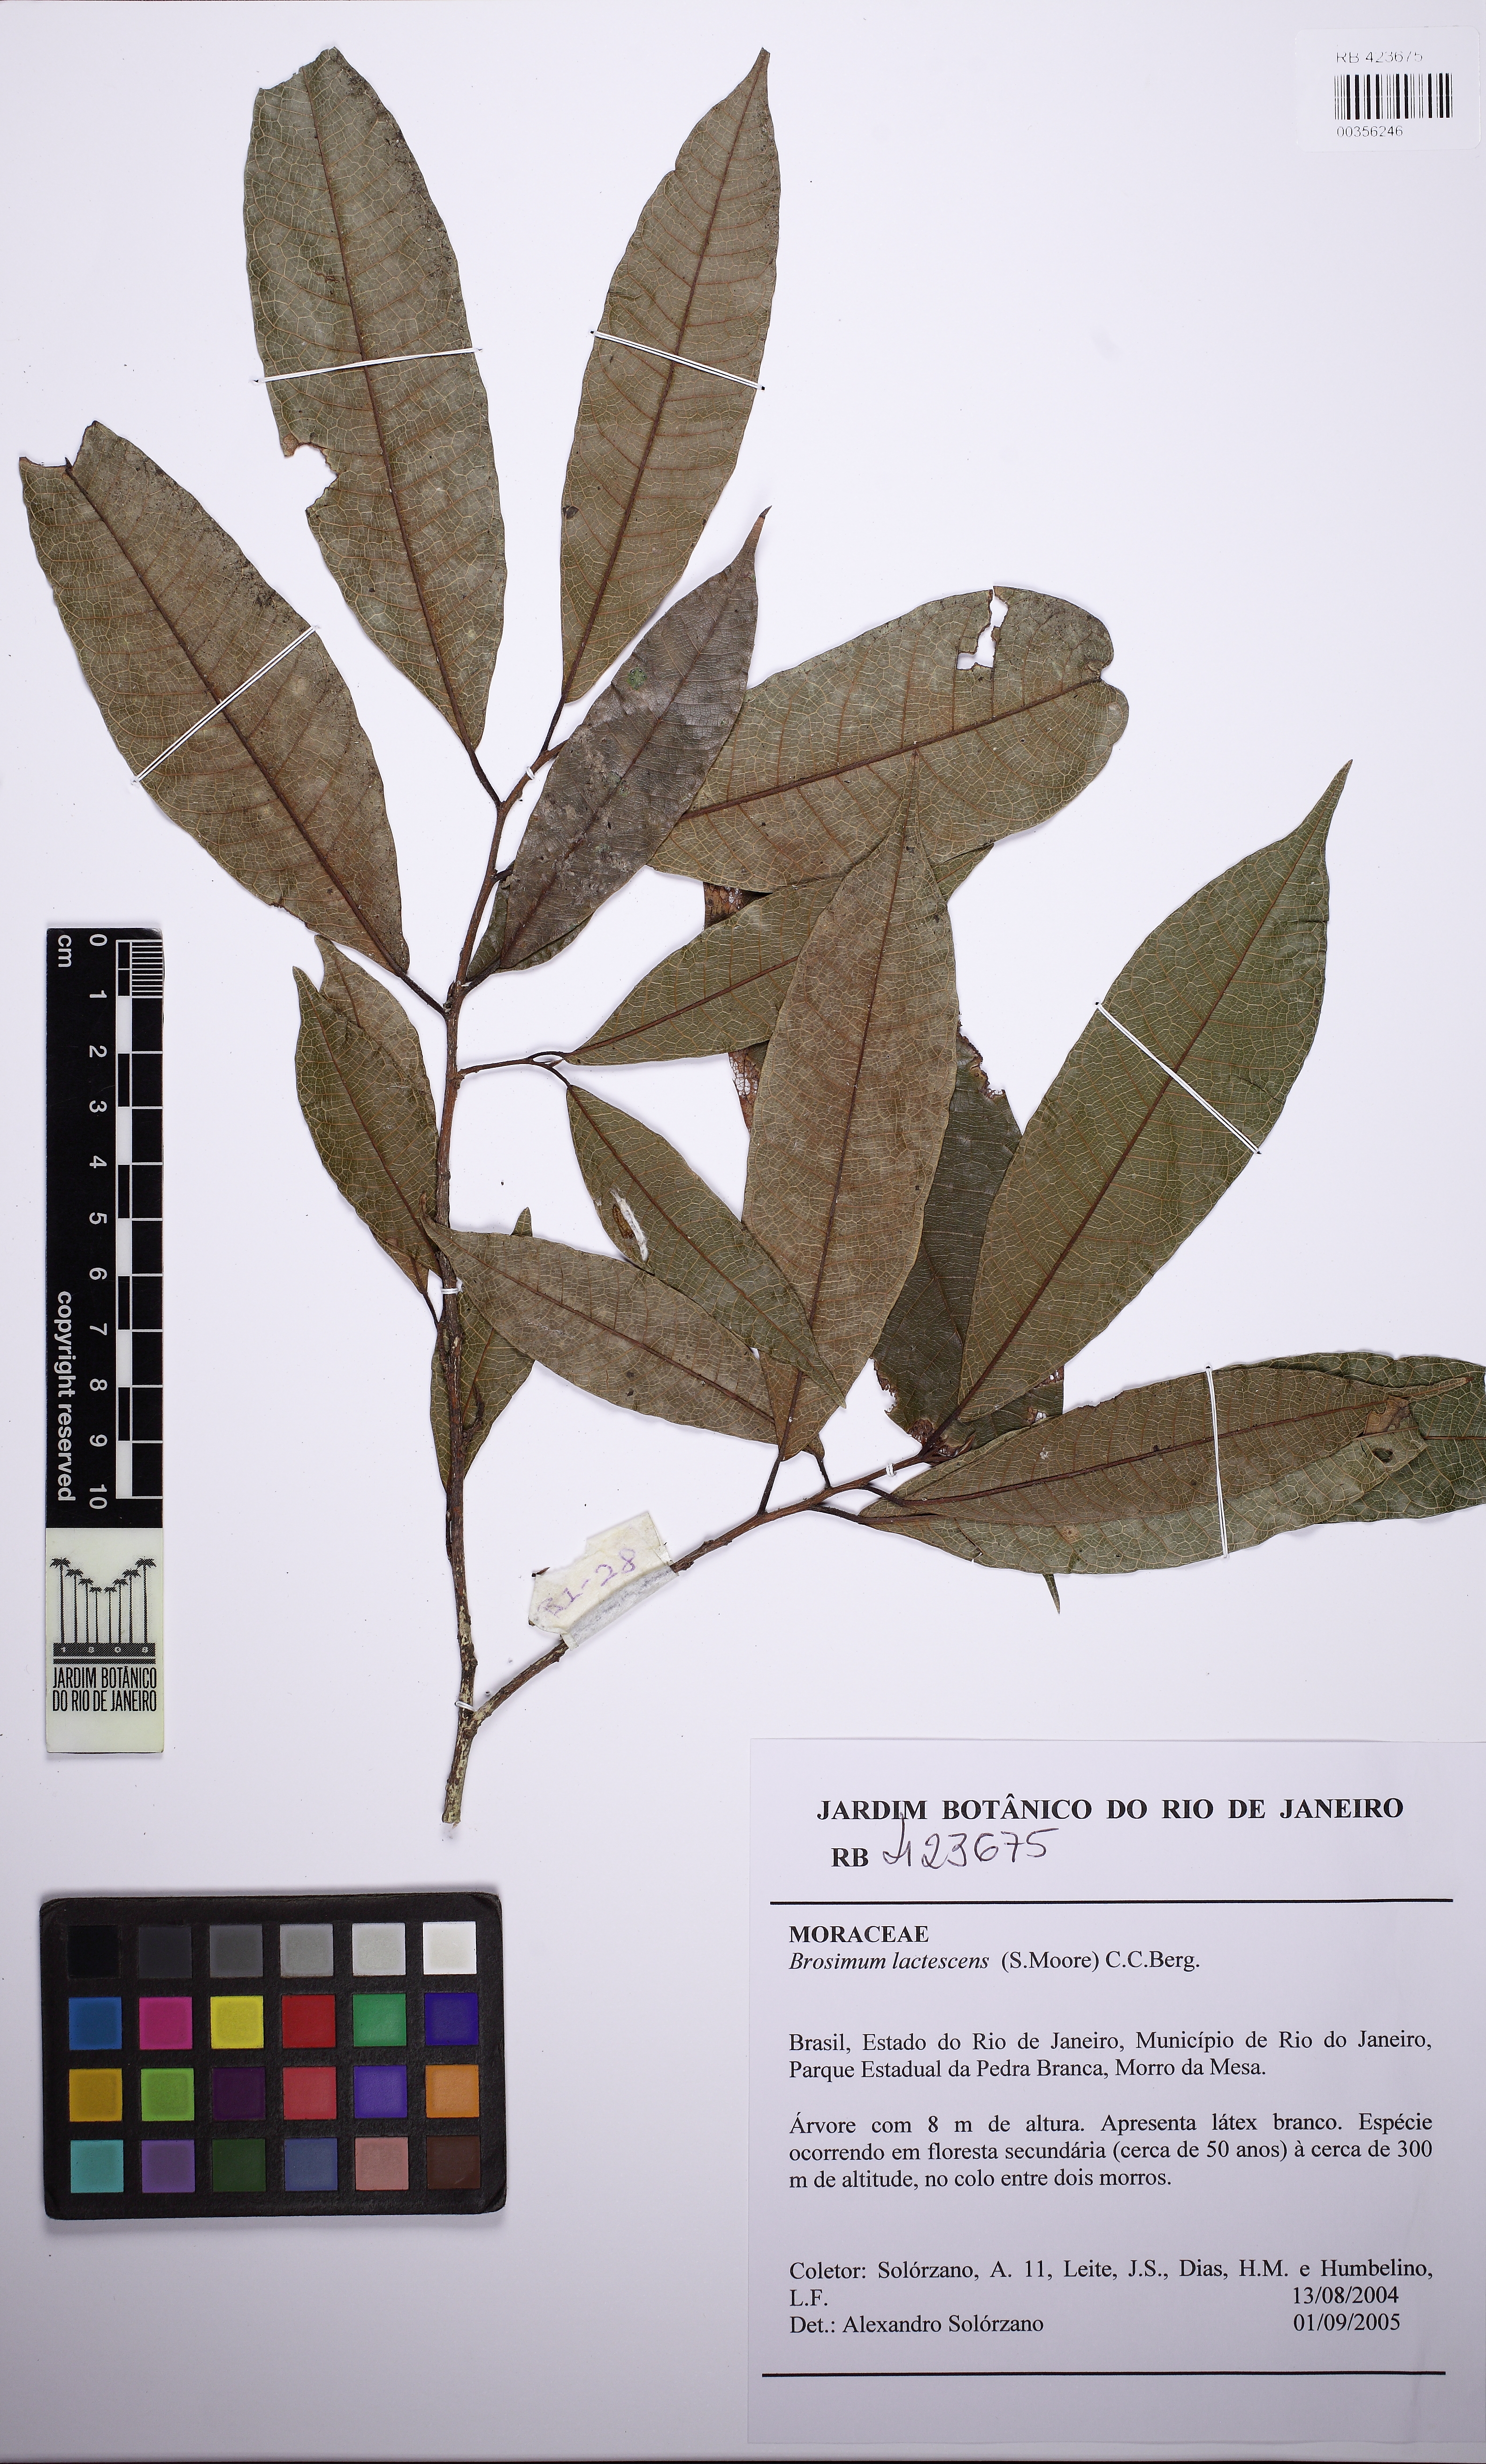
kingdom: Plantae
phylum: Tracheophyta
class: Magnoliopsida
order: Rosales
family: Moraceae
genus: Brosimum
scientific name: Brosimum lactescens
